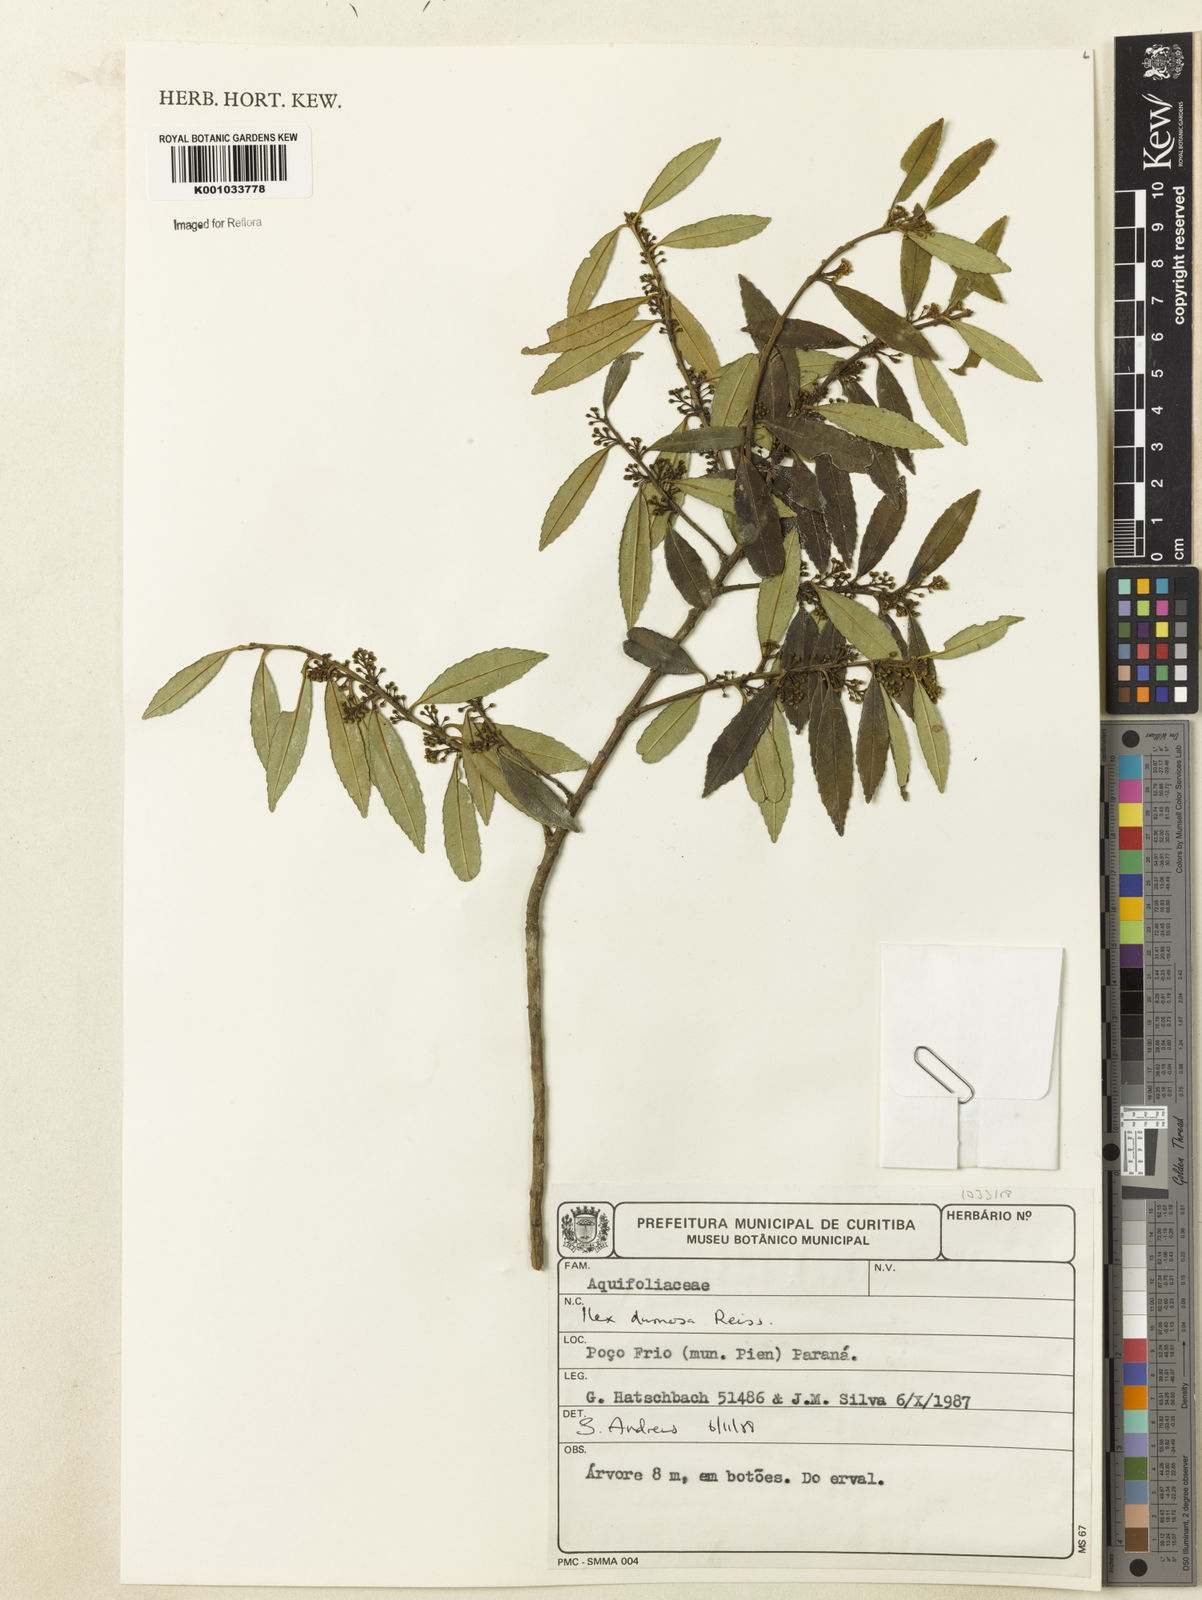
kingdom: Plantae
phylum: Tracheophyta
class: Magnoliopsida
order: Aquifoliales
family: Aquifoliaceae
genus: Ilex
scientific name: Ilex dumosa
